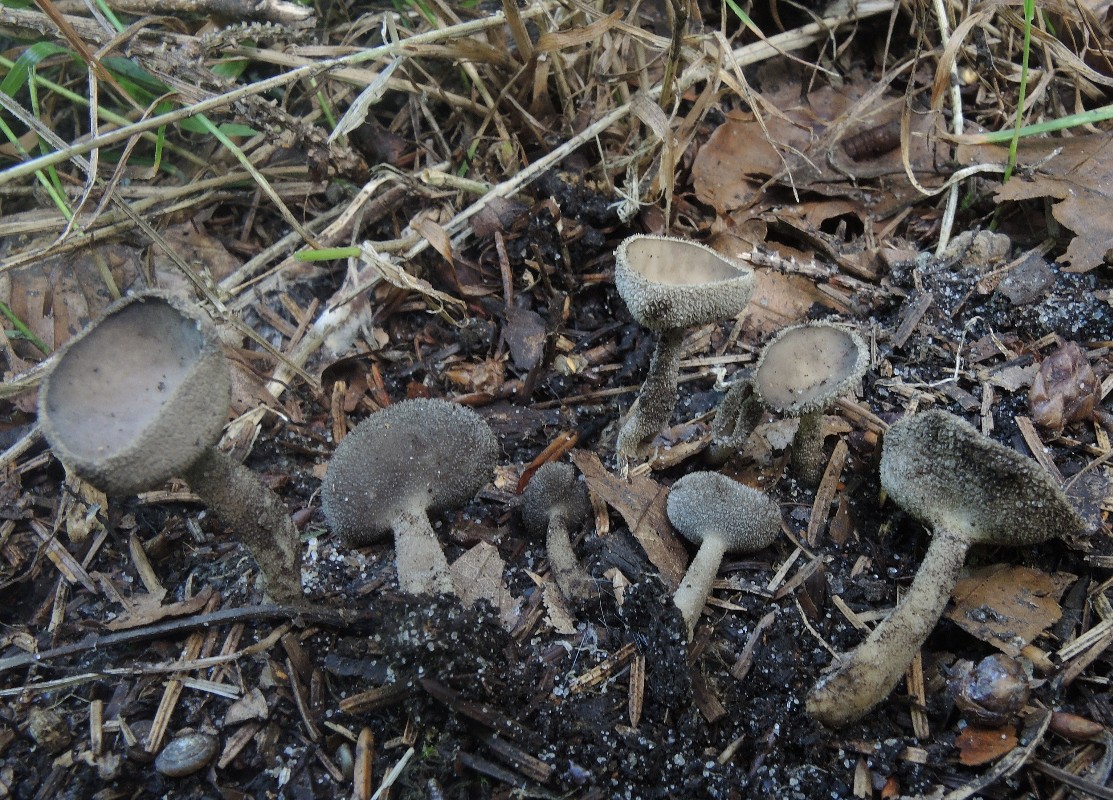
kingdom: Fungi
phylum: Ascomycota
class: Pezizomycetes
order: Pezizales
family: Helvellaceae
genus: Helvella
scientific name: Helvella macropus
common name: højstokket foldhat
